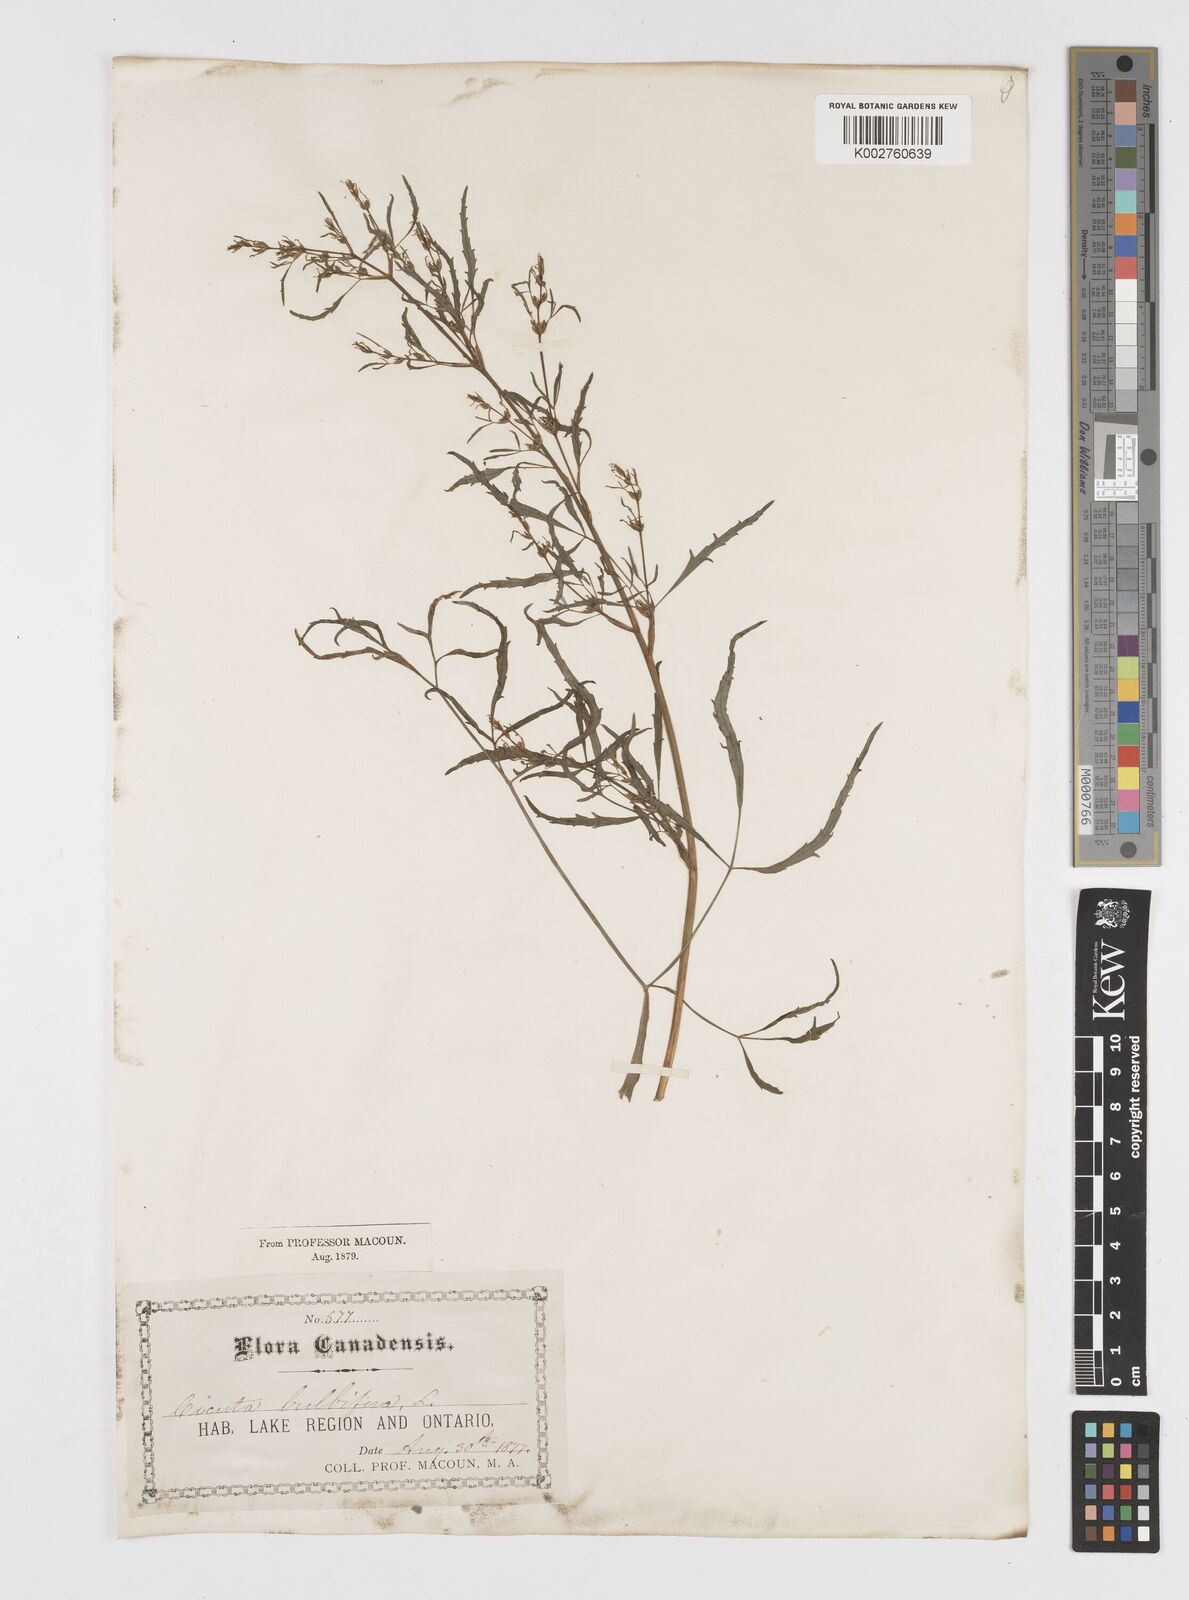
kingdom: Plantae
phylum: Tracheophyta
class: Magnoliopsida
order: Apiales
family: Apiaceae
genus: Cicuta
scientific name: Cicuta bulbifera
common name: Bulb-bearing water-hemlock
